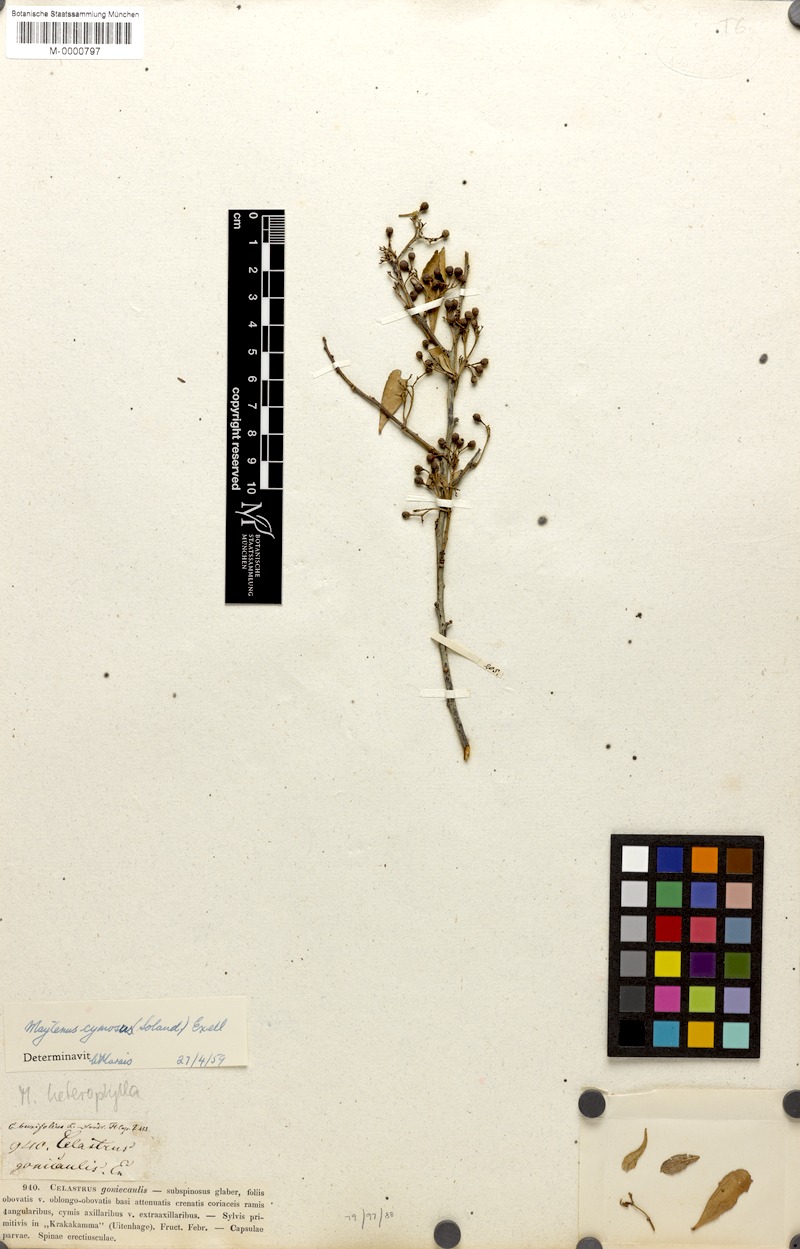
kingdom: Plantae
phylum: Tracheophyta
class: Magnoliopsida
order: Celastrales
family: Celastraceae
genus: Gymnosporia
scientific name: Gymnosporia buxifolia
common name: Common spike-thorn
